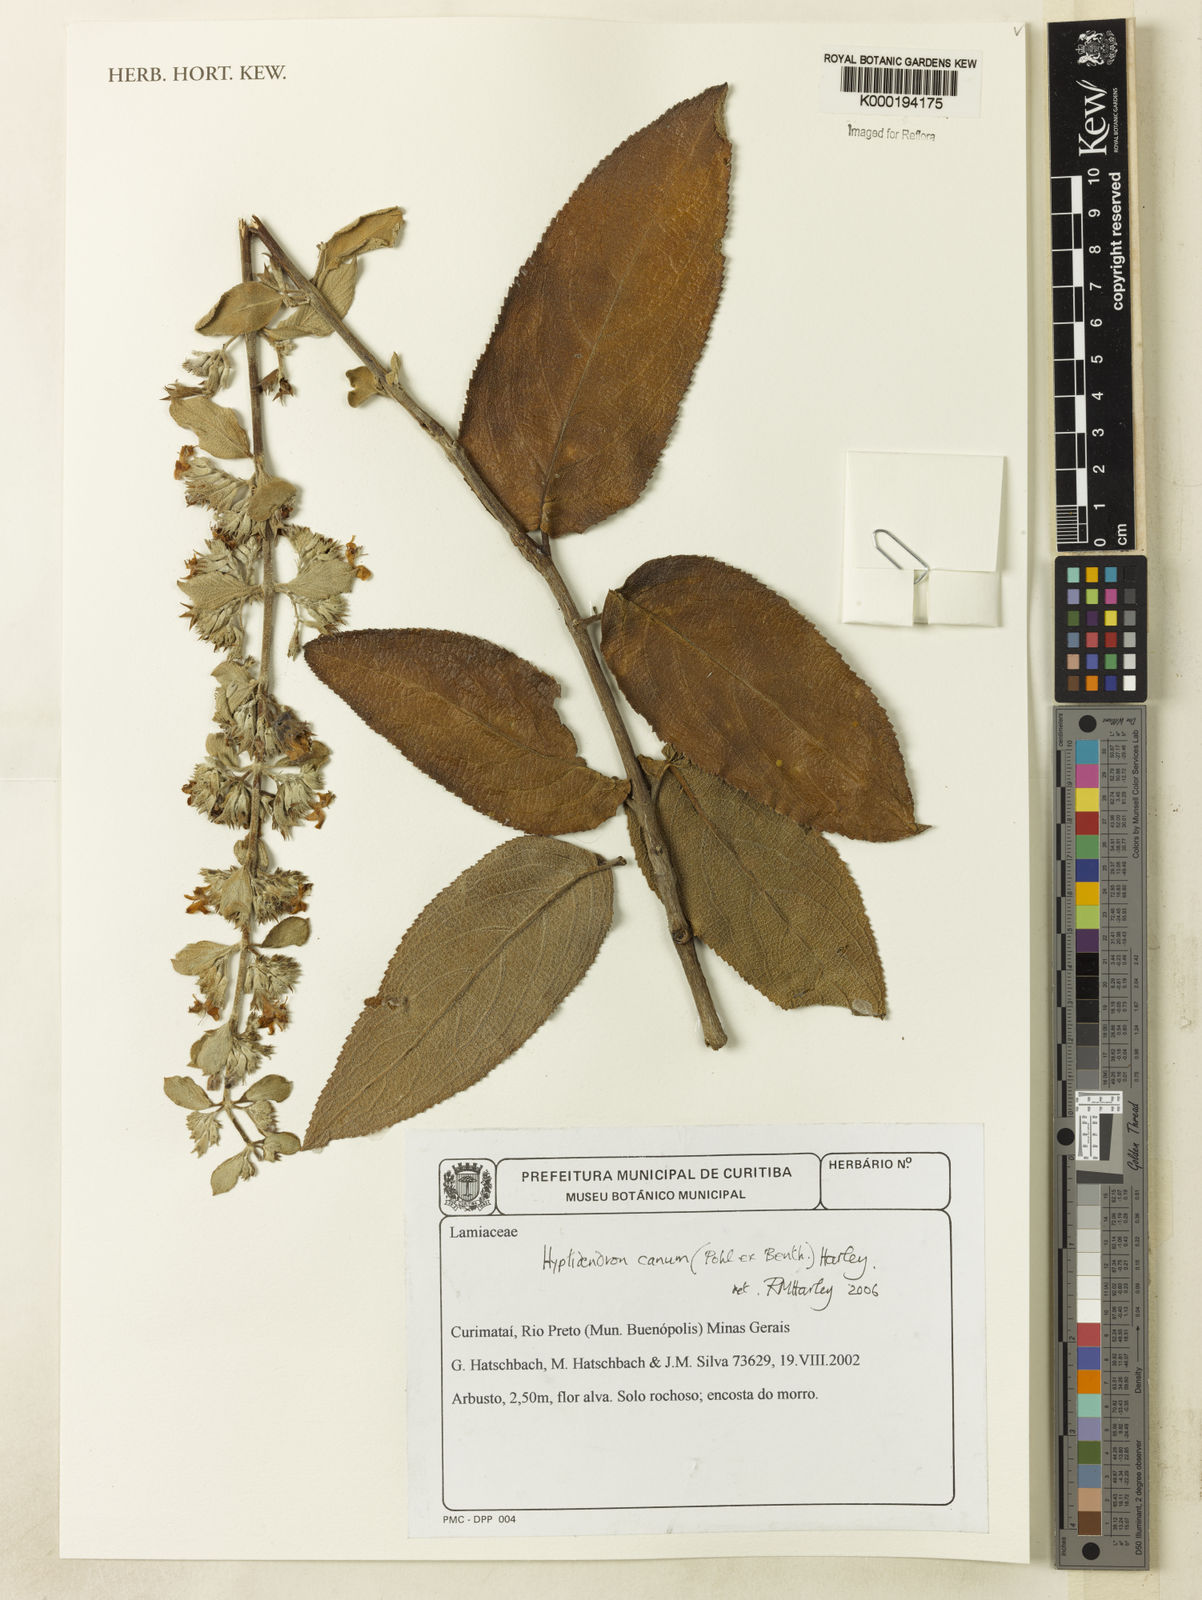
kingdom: Plantae
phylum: Tracheophyta
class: Magnoliopsida
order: Lamiales
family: Lamiaceae
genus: Hyptidendron
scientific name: Hyptidendron canum
